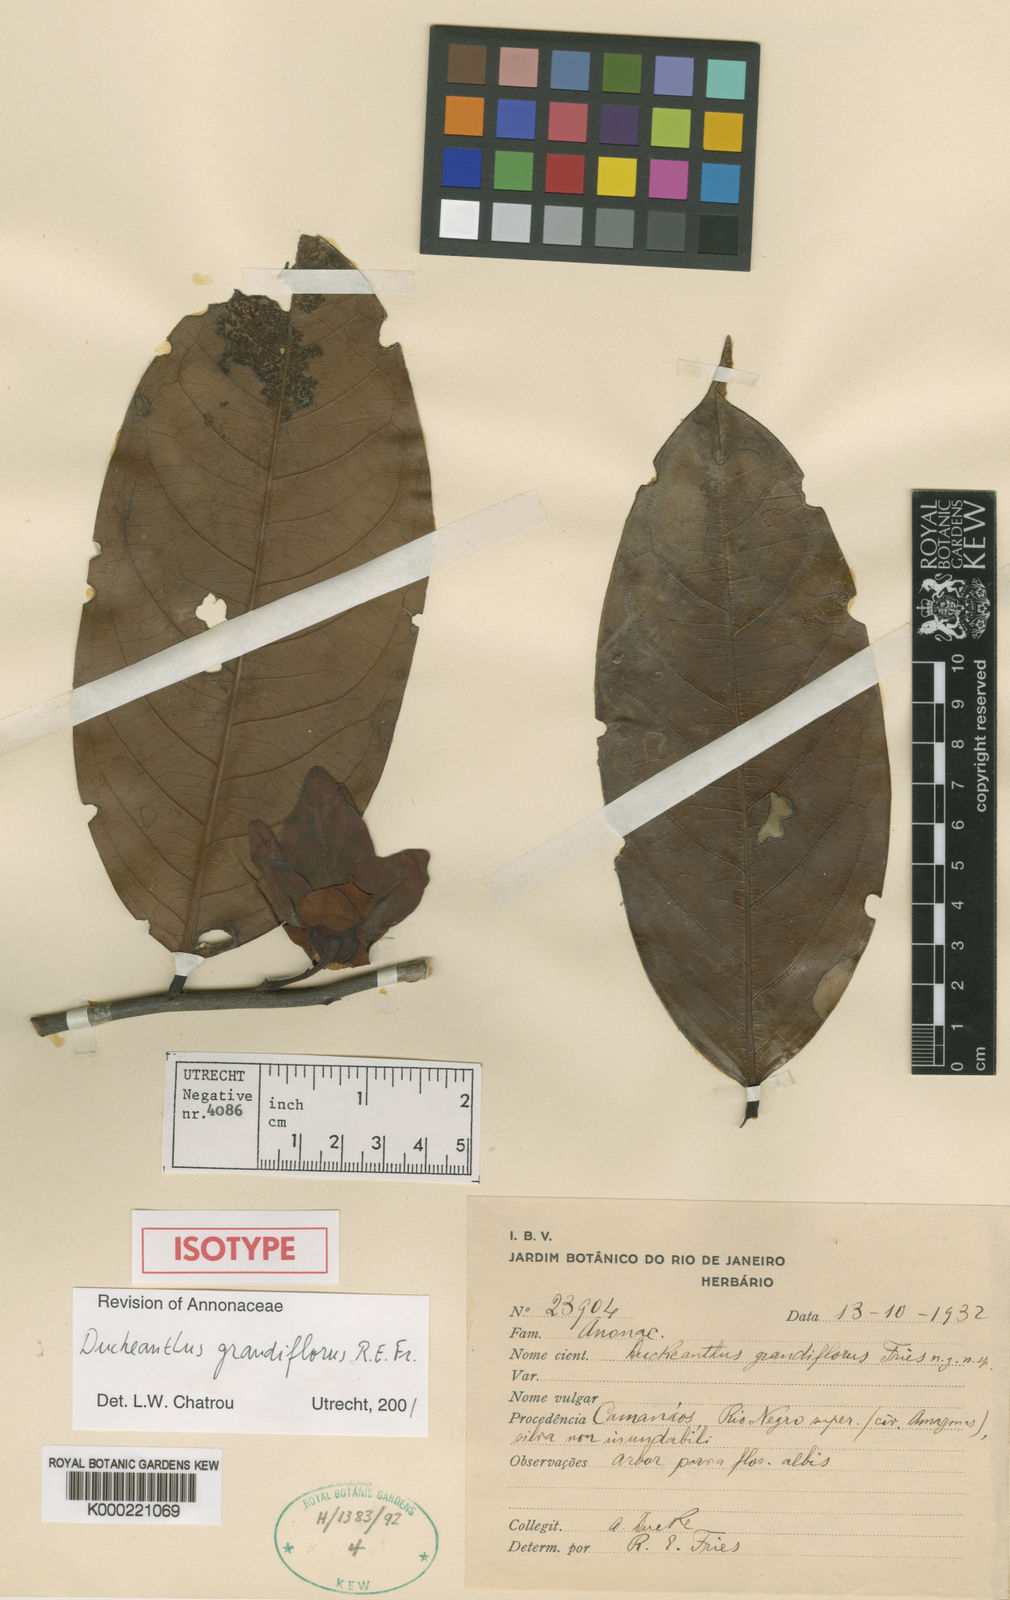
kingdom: Plantae
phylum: Tracheophyta
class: Magnoliopsida
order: Magnoliales
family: Annonaceae
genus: Duckeanthus
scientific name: Duckeanthus grandiflorus
